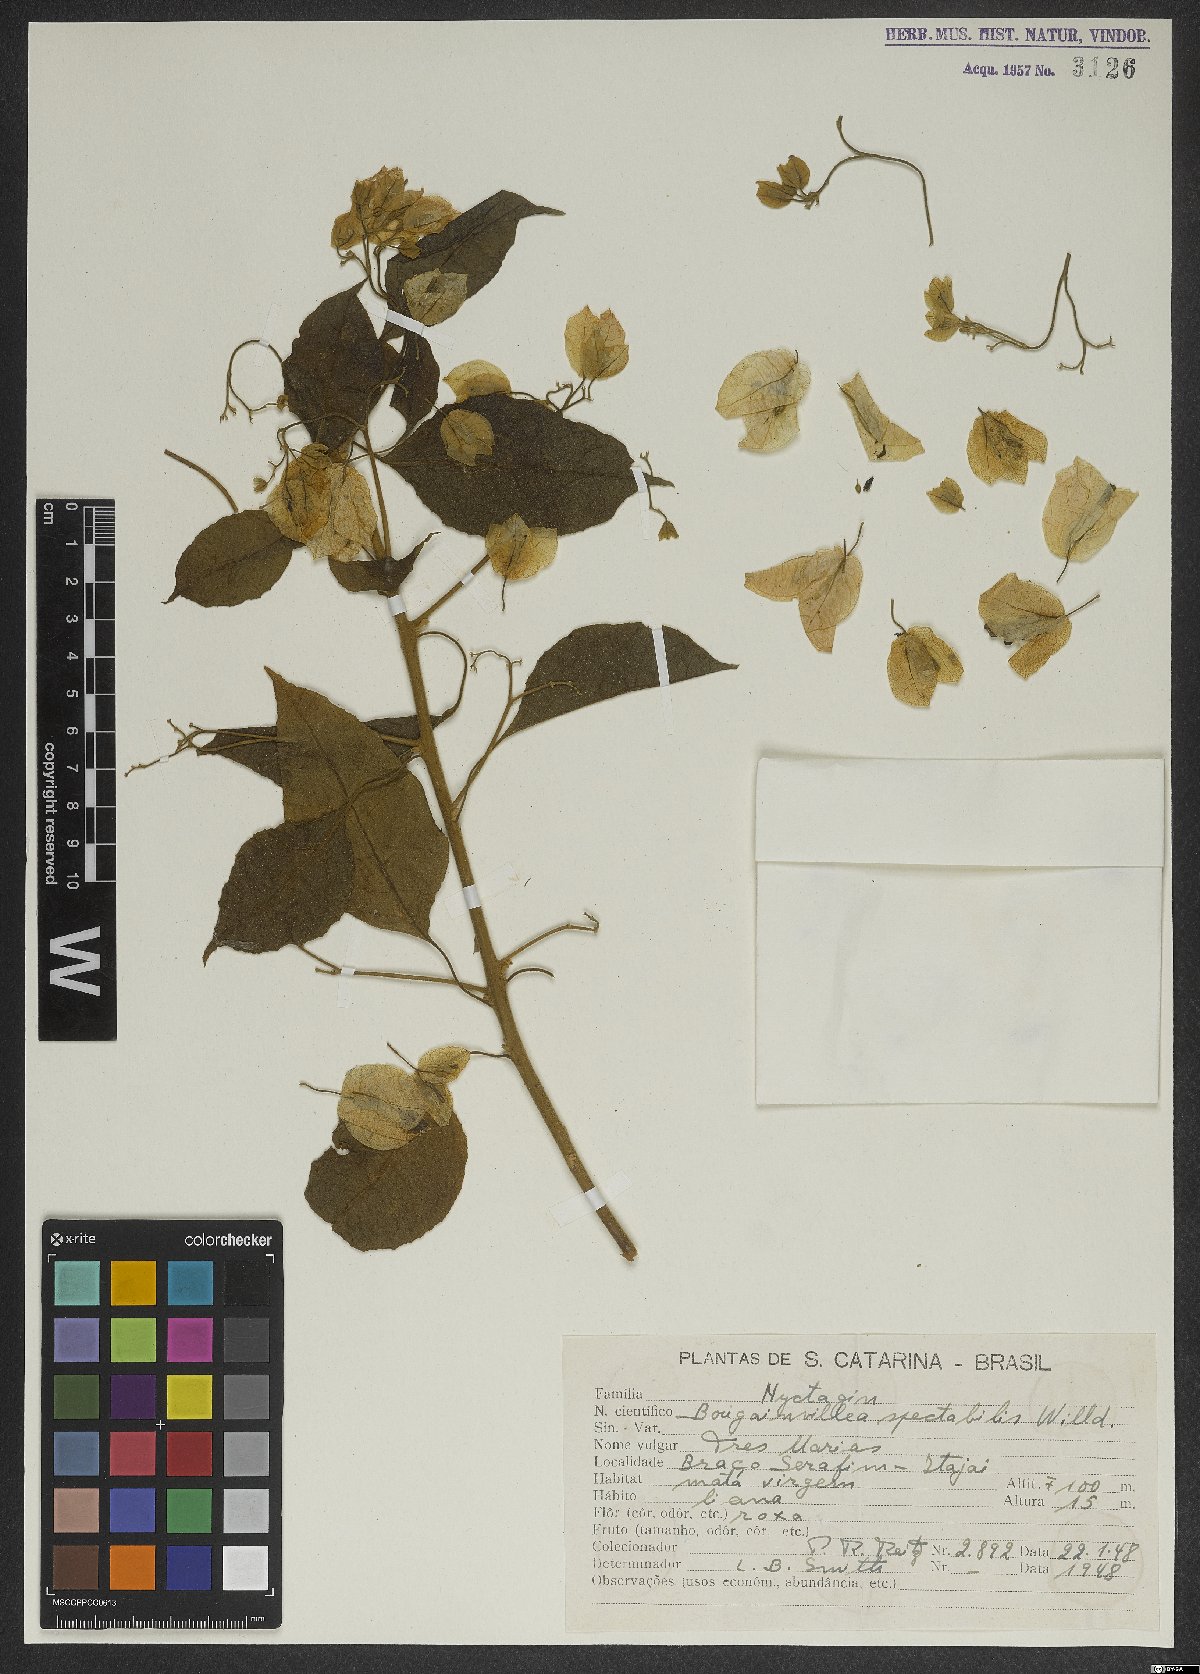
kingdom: Plantae
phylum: Tracheophyta
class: Magnoliopsida
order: Caryophyllales
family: Nyctaginaceae
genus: Bougainvillea
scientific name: Bougainvillea spectabilis
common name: Great bougainvillea
